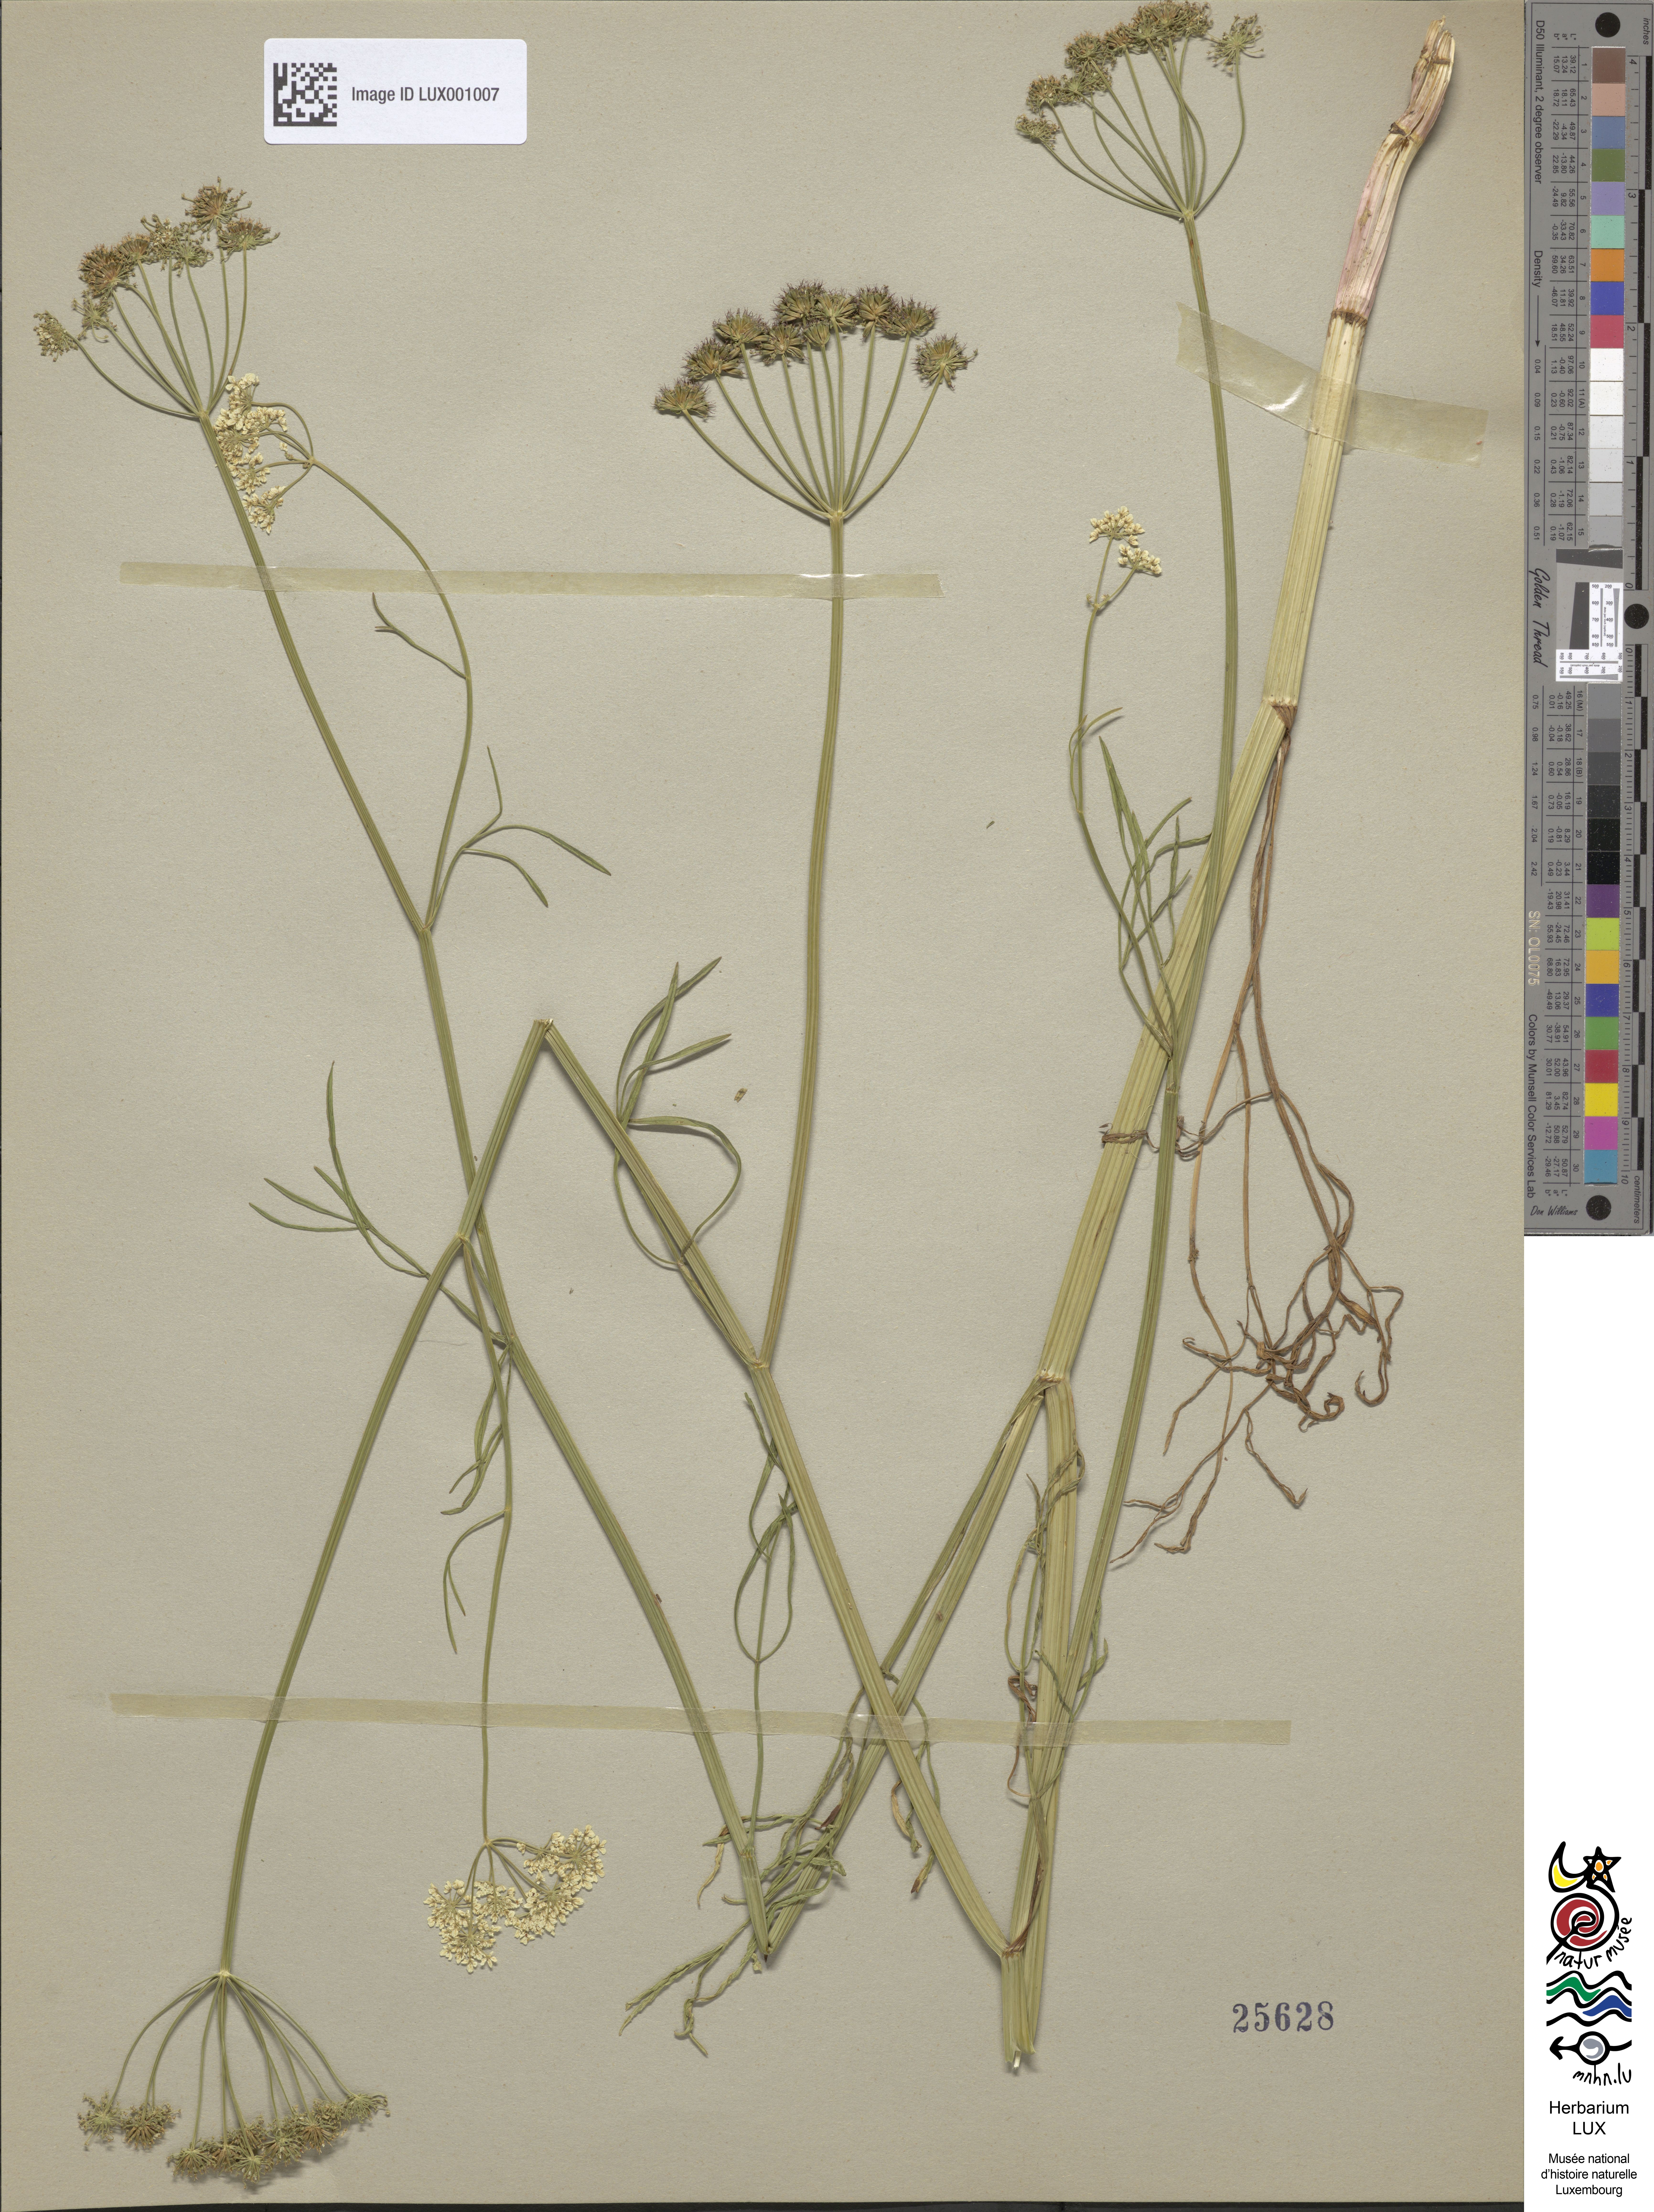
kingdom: Plantae
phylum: Tracheophyta
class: Magnoliopsida
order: Apiales
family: Apiaceae
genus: Oenanthe
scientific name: Oenanthe peucedanifolia
